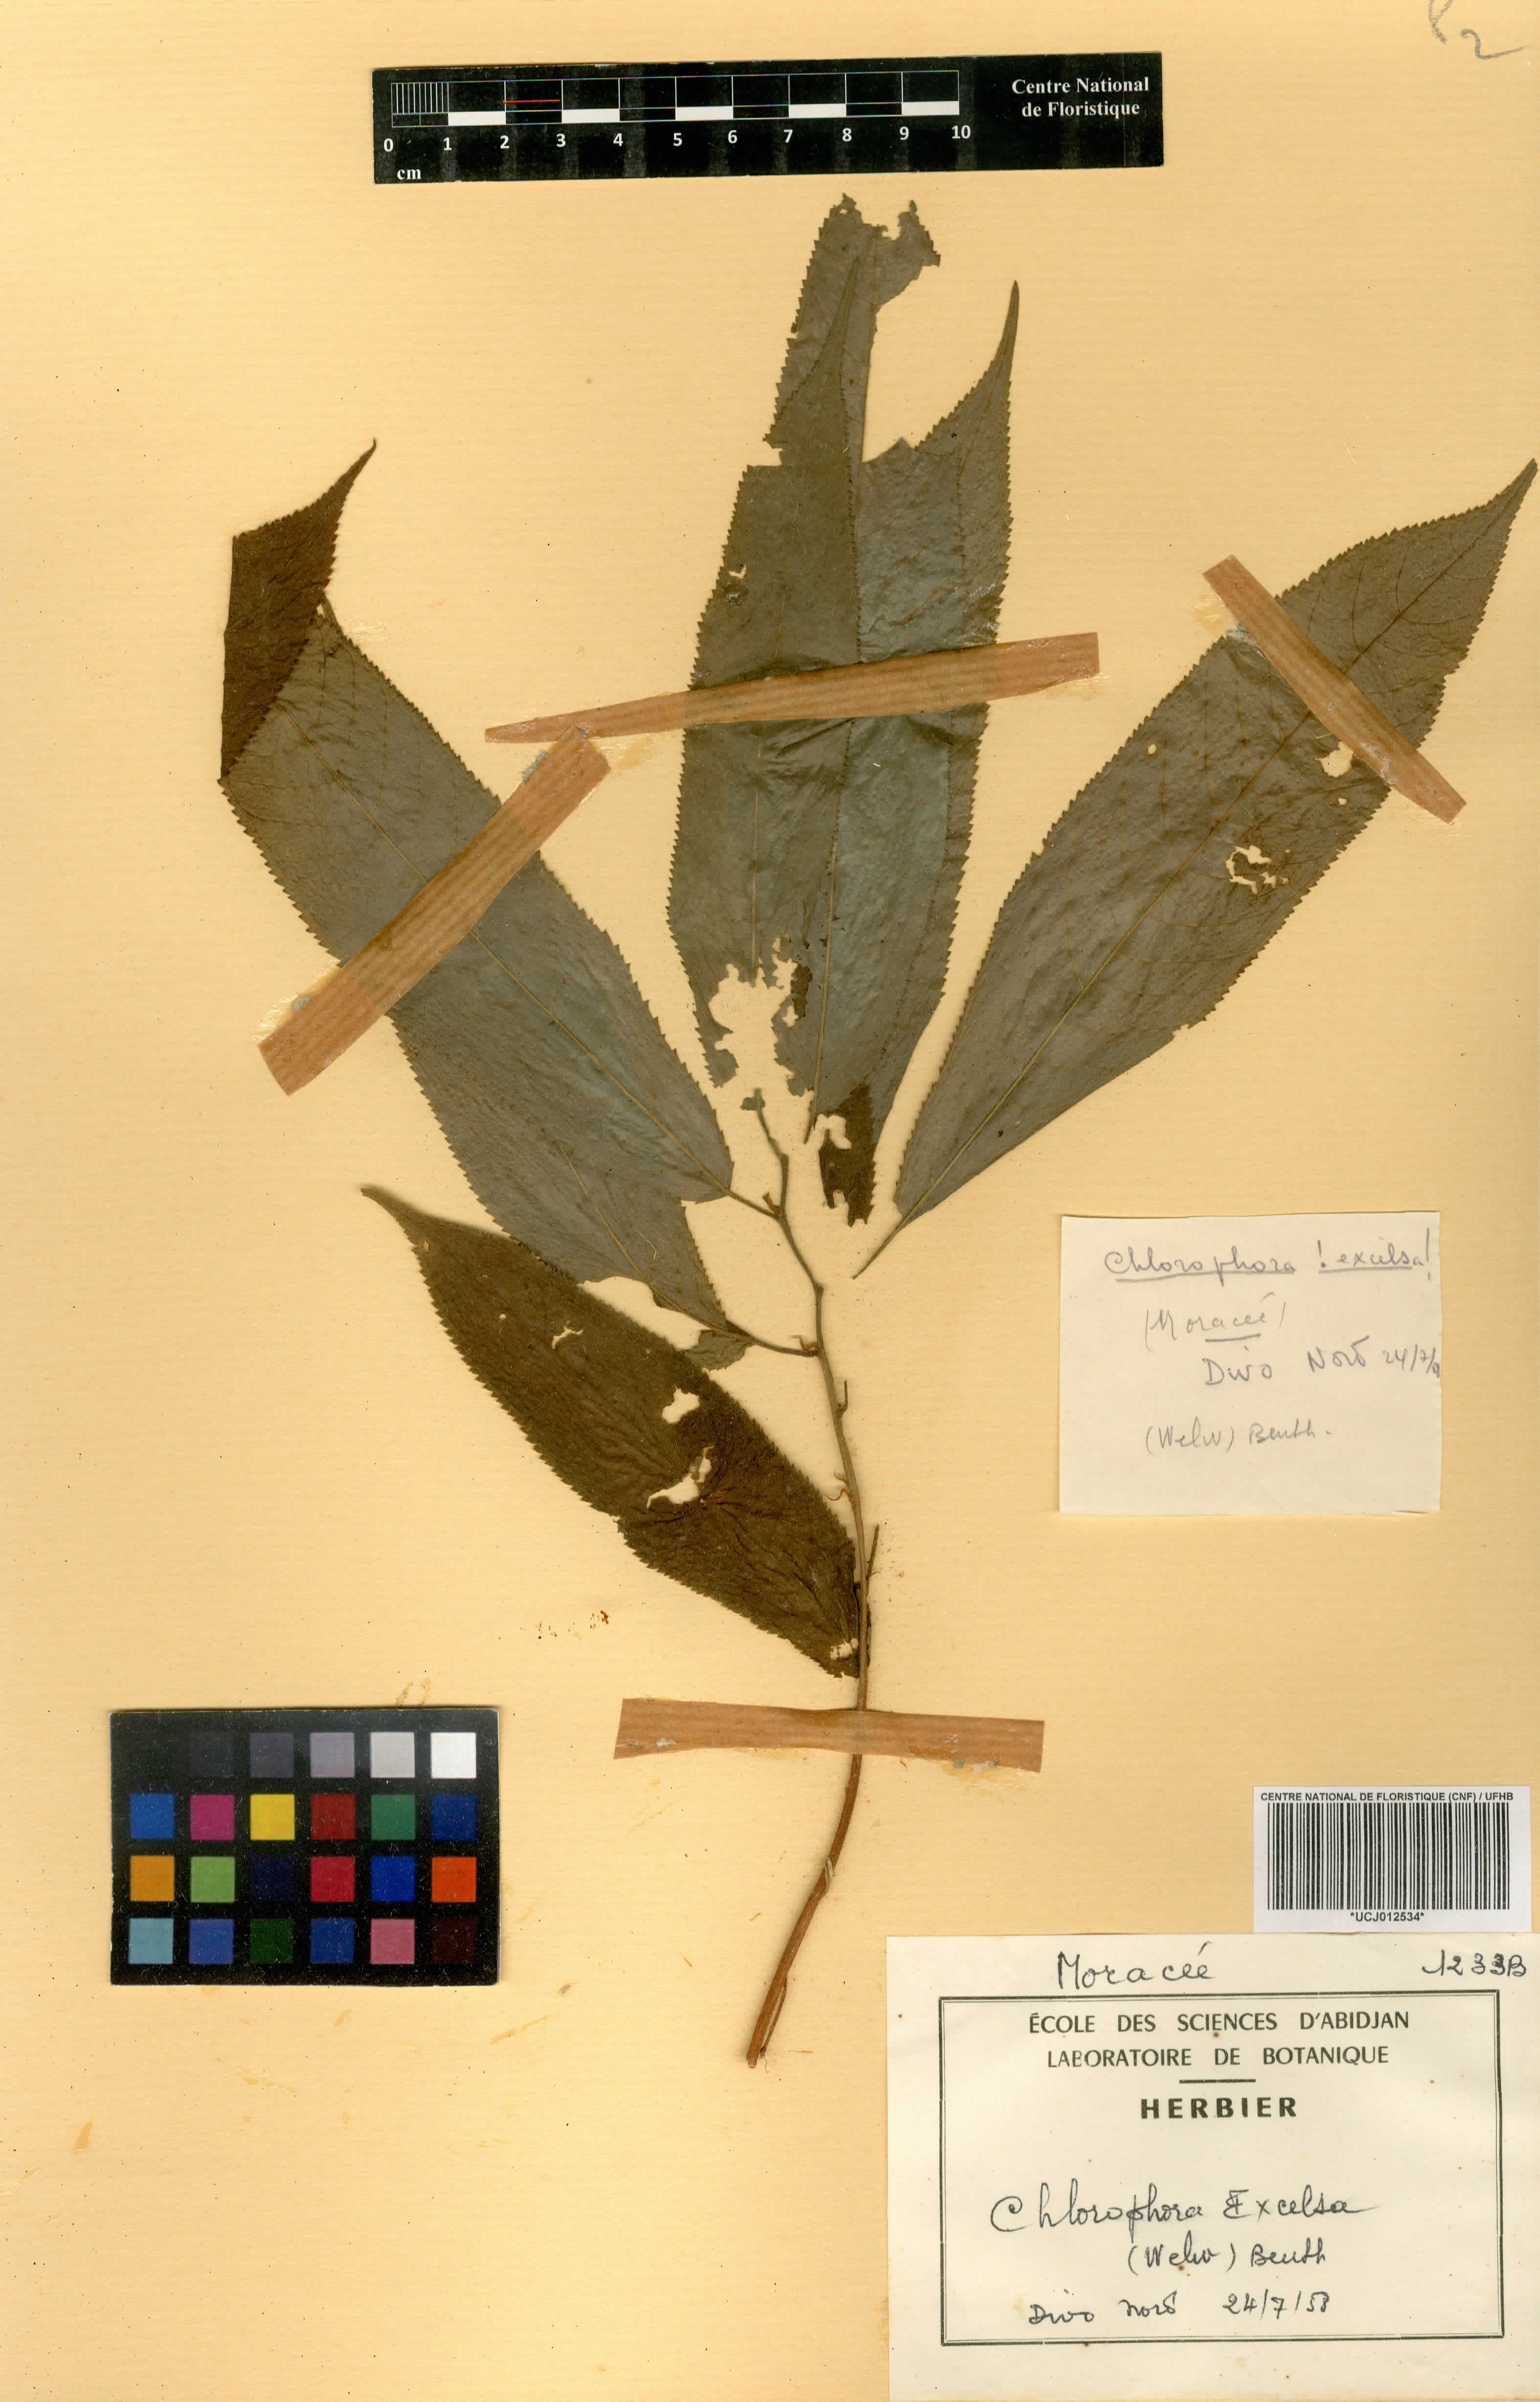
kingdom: Plantae
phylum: Tracheophyta
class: Magnoliopsida
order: Rosales
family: Moraceae
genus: Milicia
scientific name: Milicia excelsa
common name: African teak
